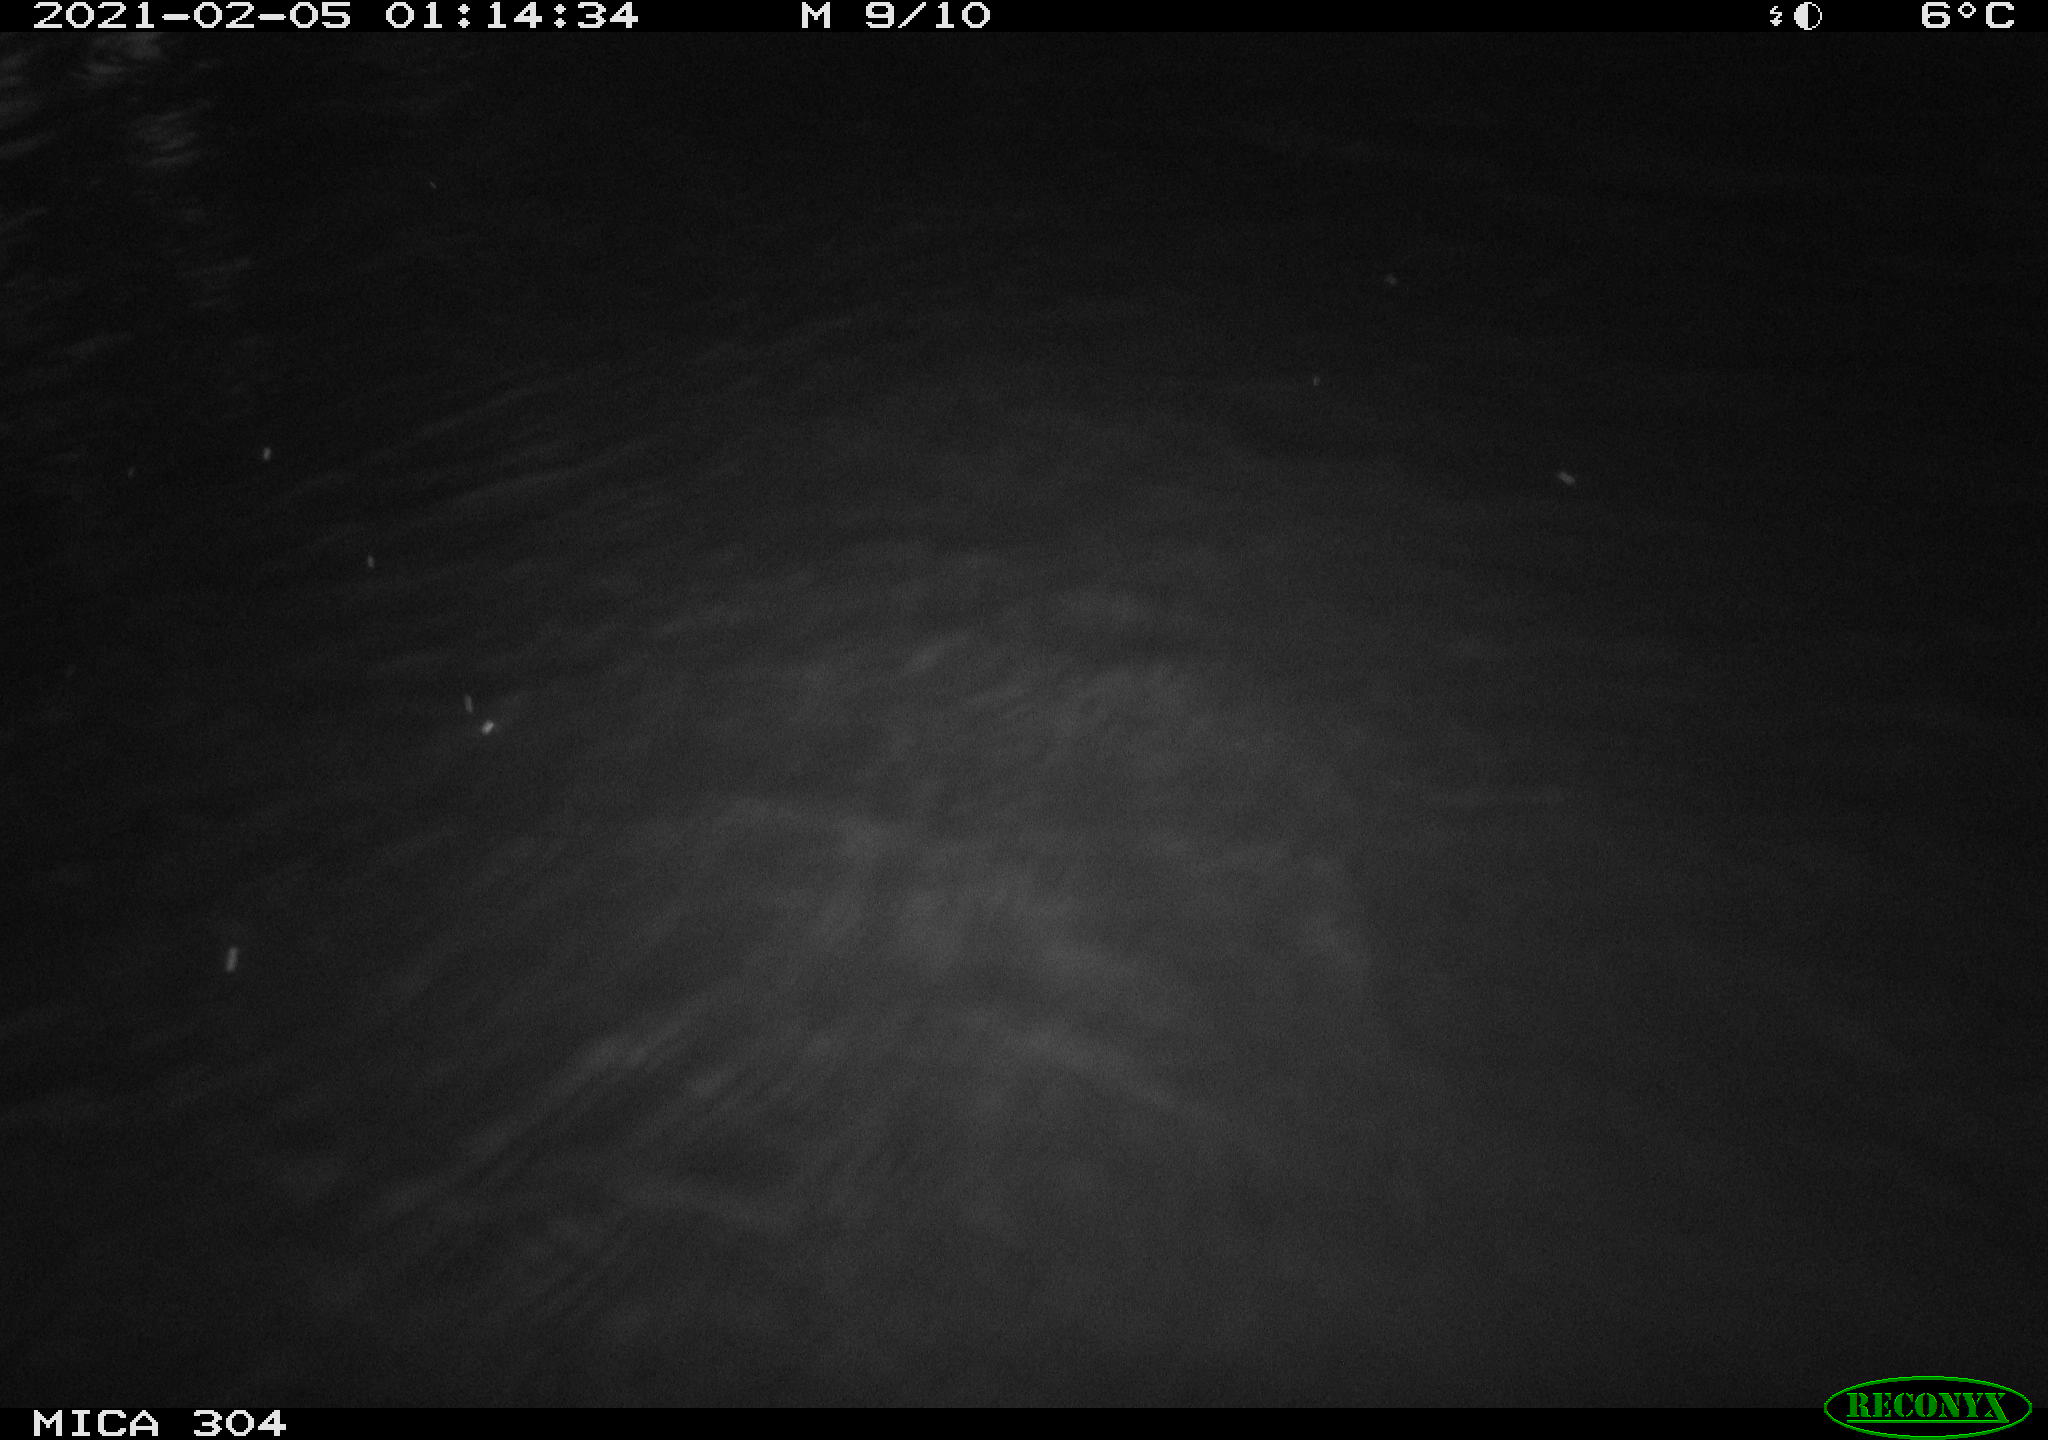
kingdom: Animalia
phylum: Chordata
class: Mammalia
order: Rodentia
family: Cricetidae
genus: Ondatra
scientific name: Ondatra zibethicus
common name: Muskrat
